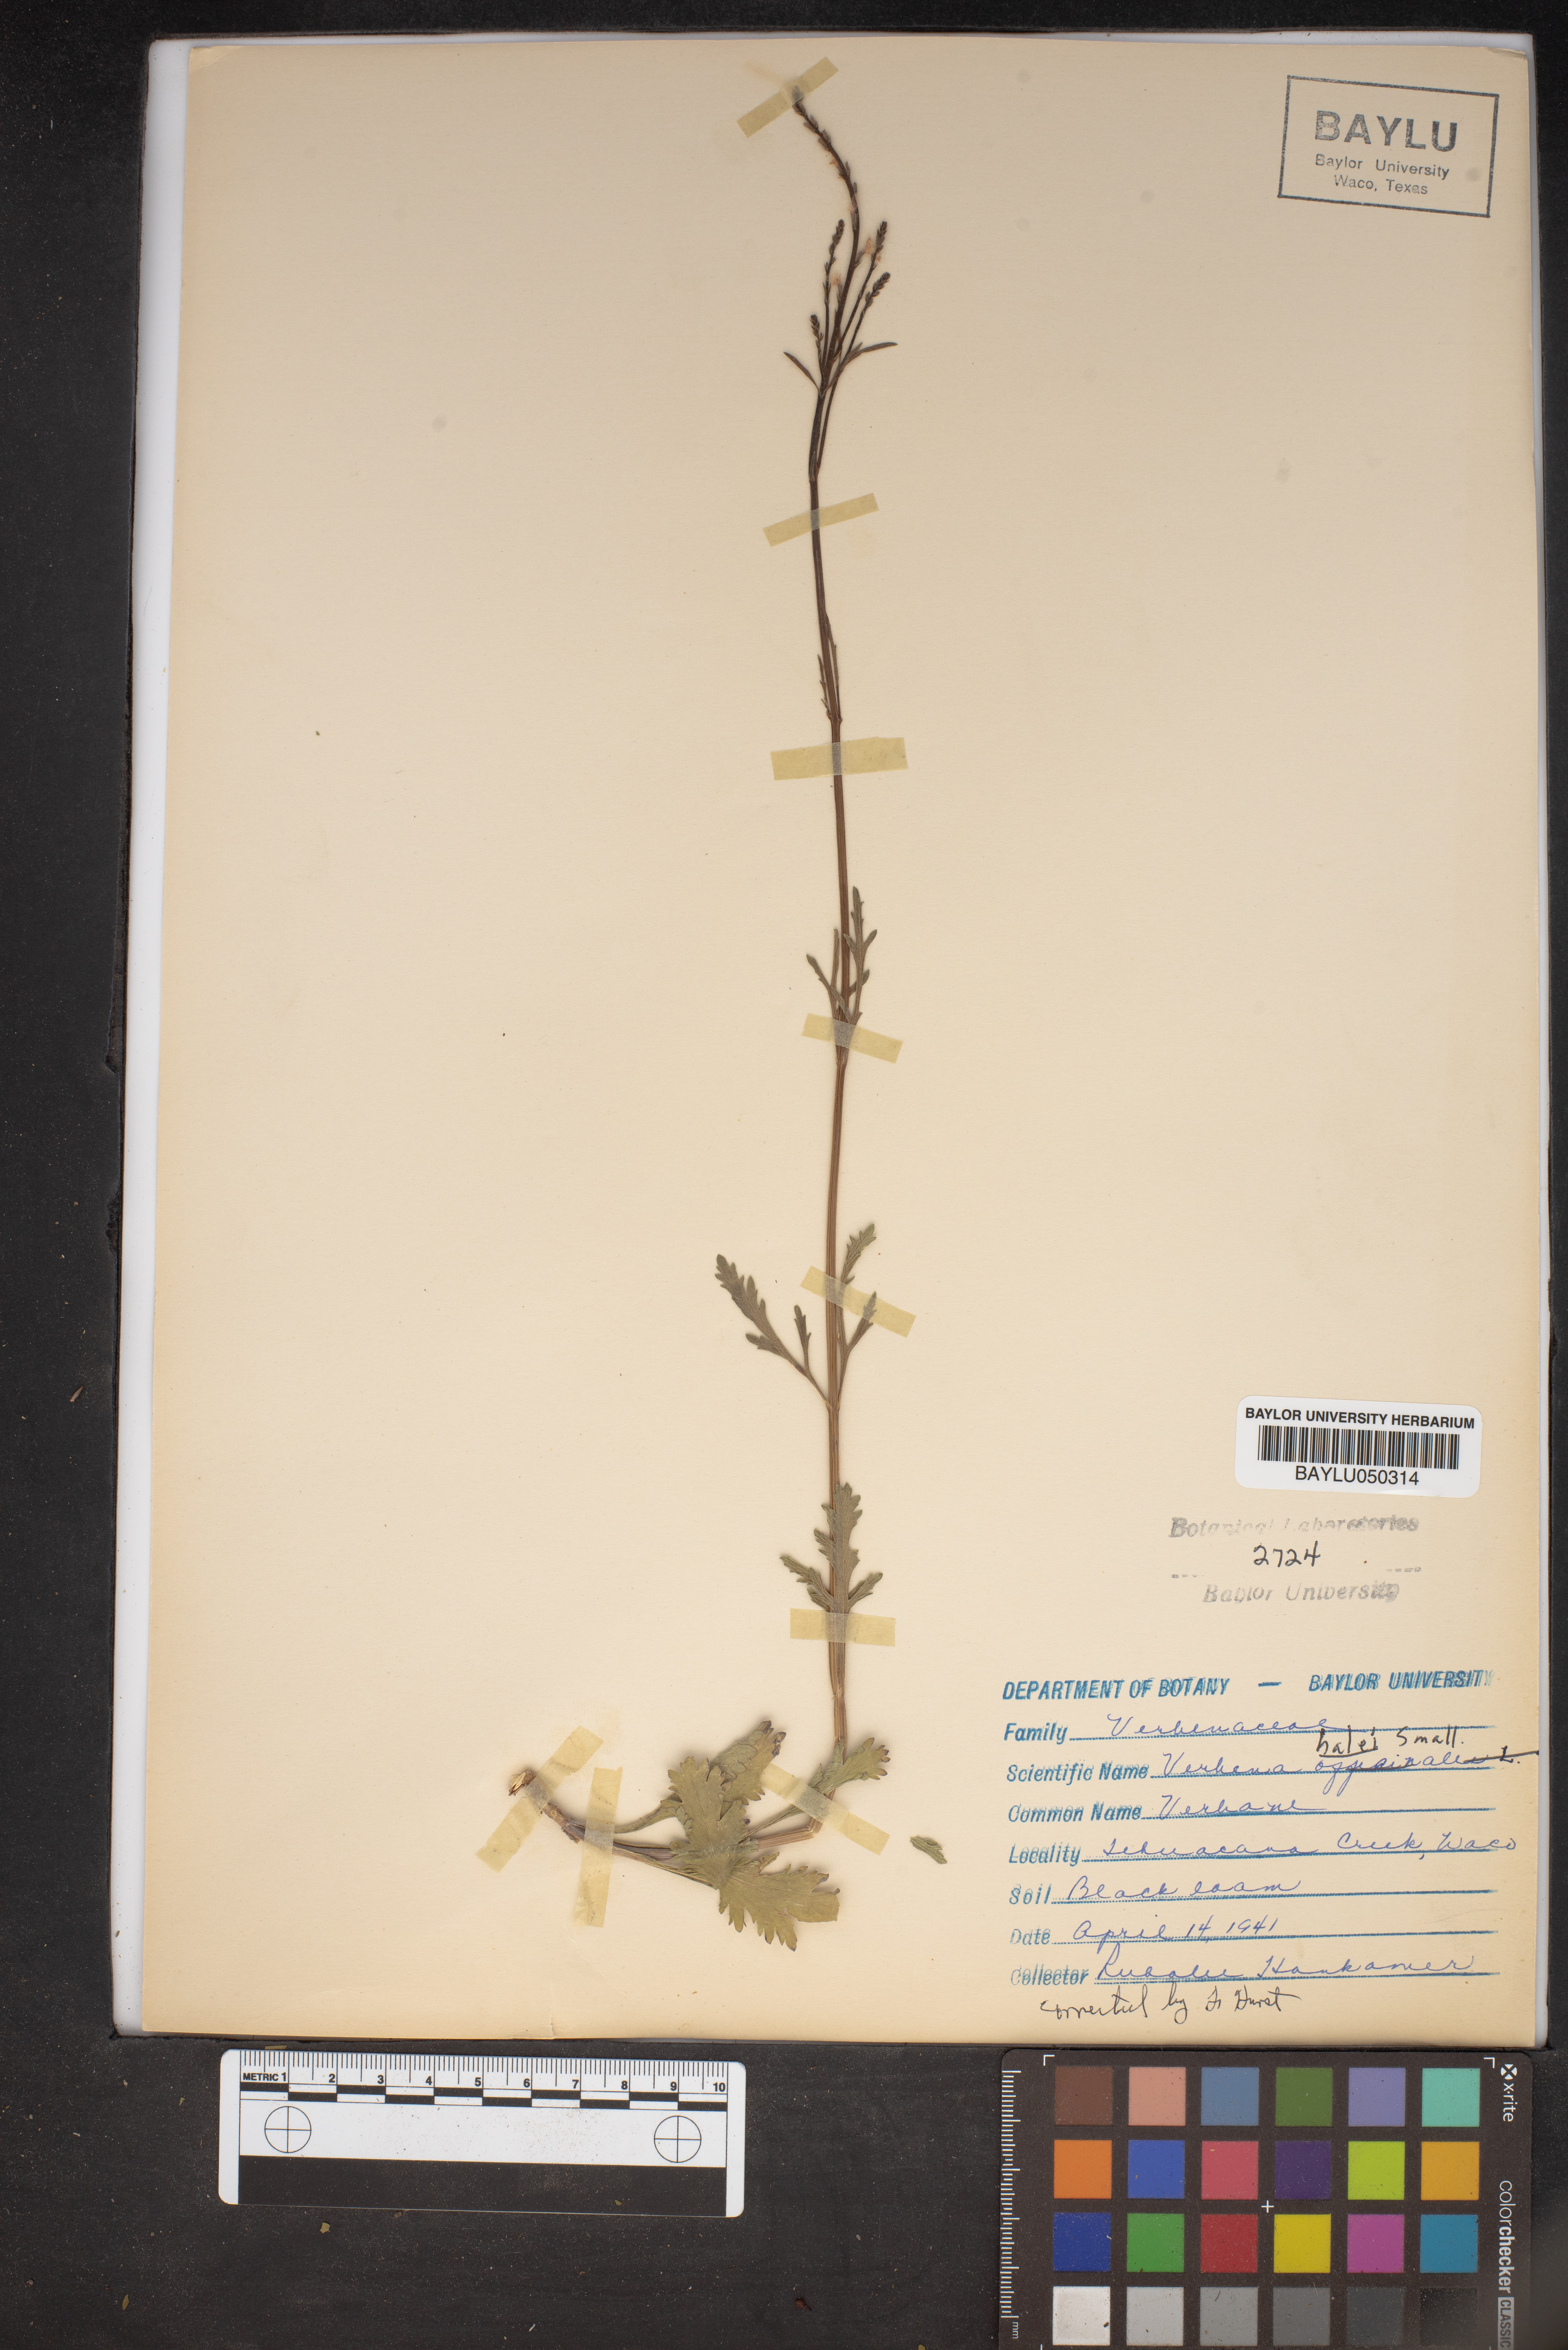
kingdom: Plantae
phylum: Tracheophyta
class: Magnoliopsida
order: Lamiales
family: Verbenaceae
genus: Verbena
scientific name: Verbena halei
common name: Texas vervain
